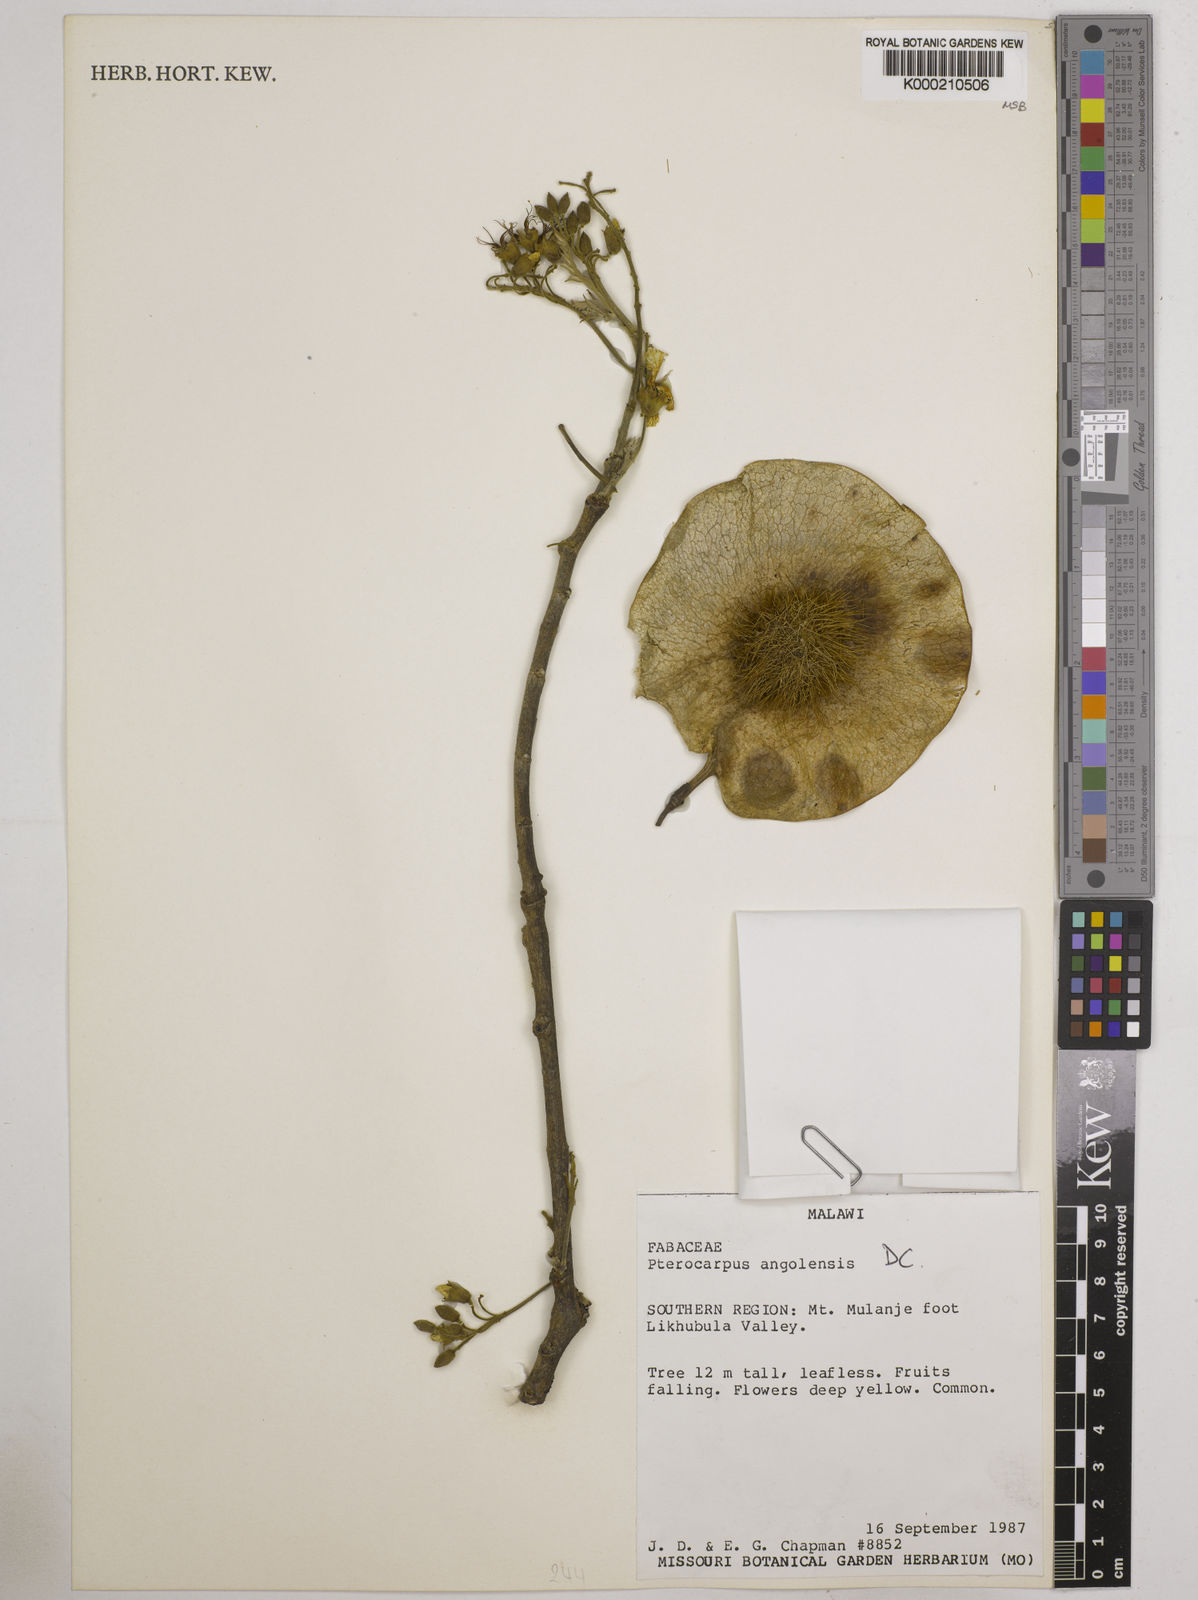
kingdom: Plantae
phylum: Tracheophyta
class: Magnoliopsida
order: Fabales
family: Fabaceae
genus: Pterocarpus
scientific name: Pterocarpus angolensis
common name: Bloodwood tree
